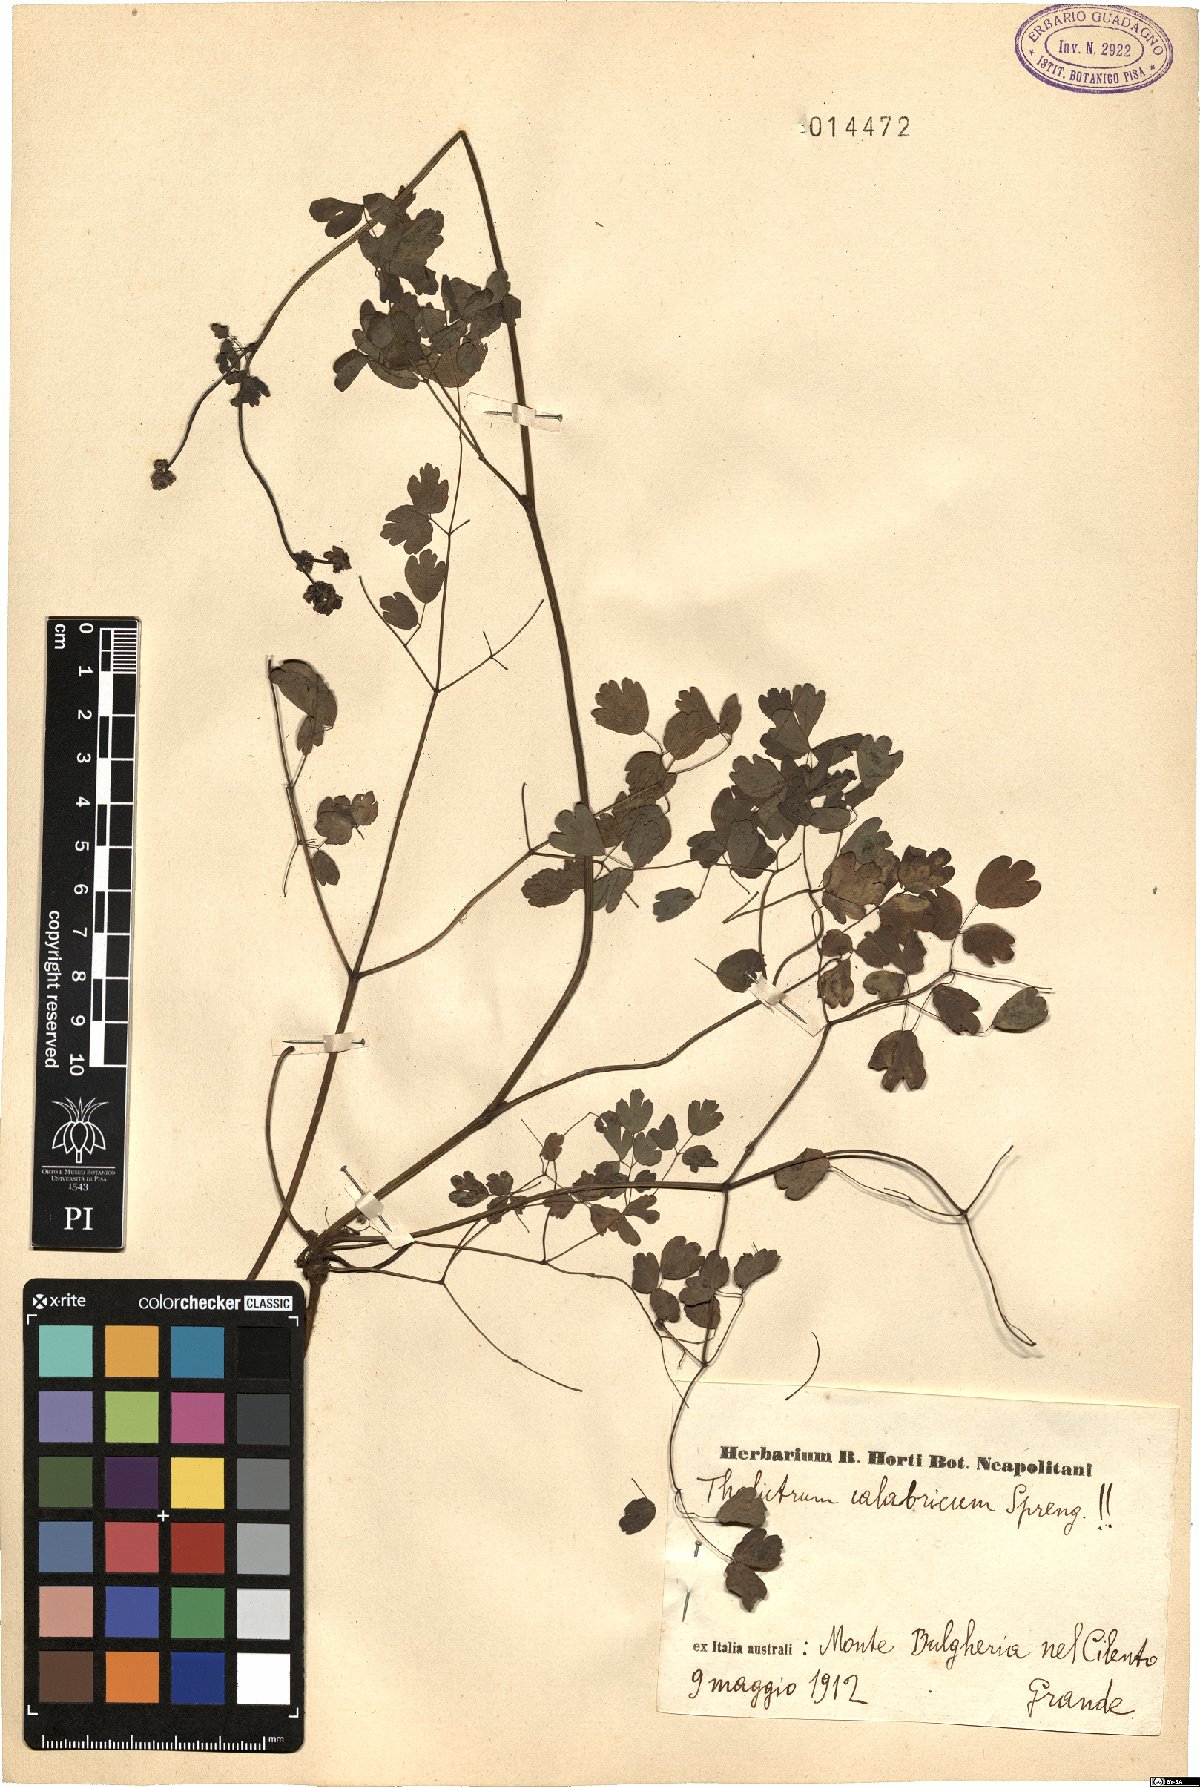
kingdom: Plantae
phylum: Tracheophyta
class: Magnoliopsida
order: Ranunculales
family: Ranunculaceae
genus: Thalictrum
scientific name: Thalictrum calabricum
